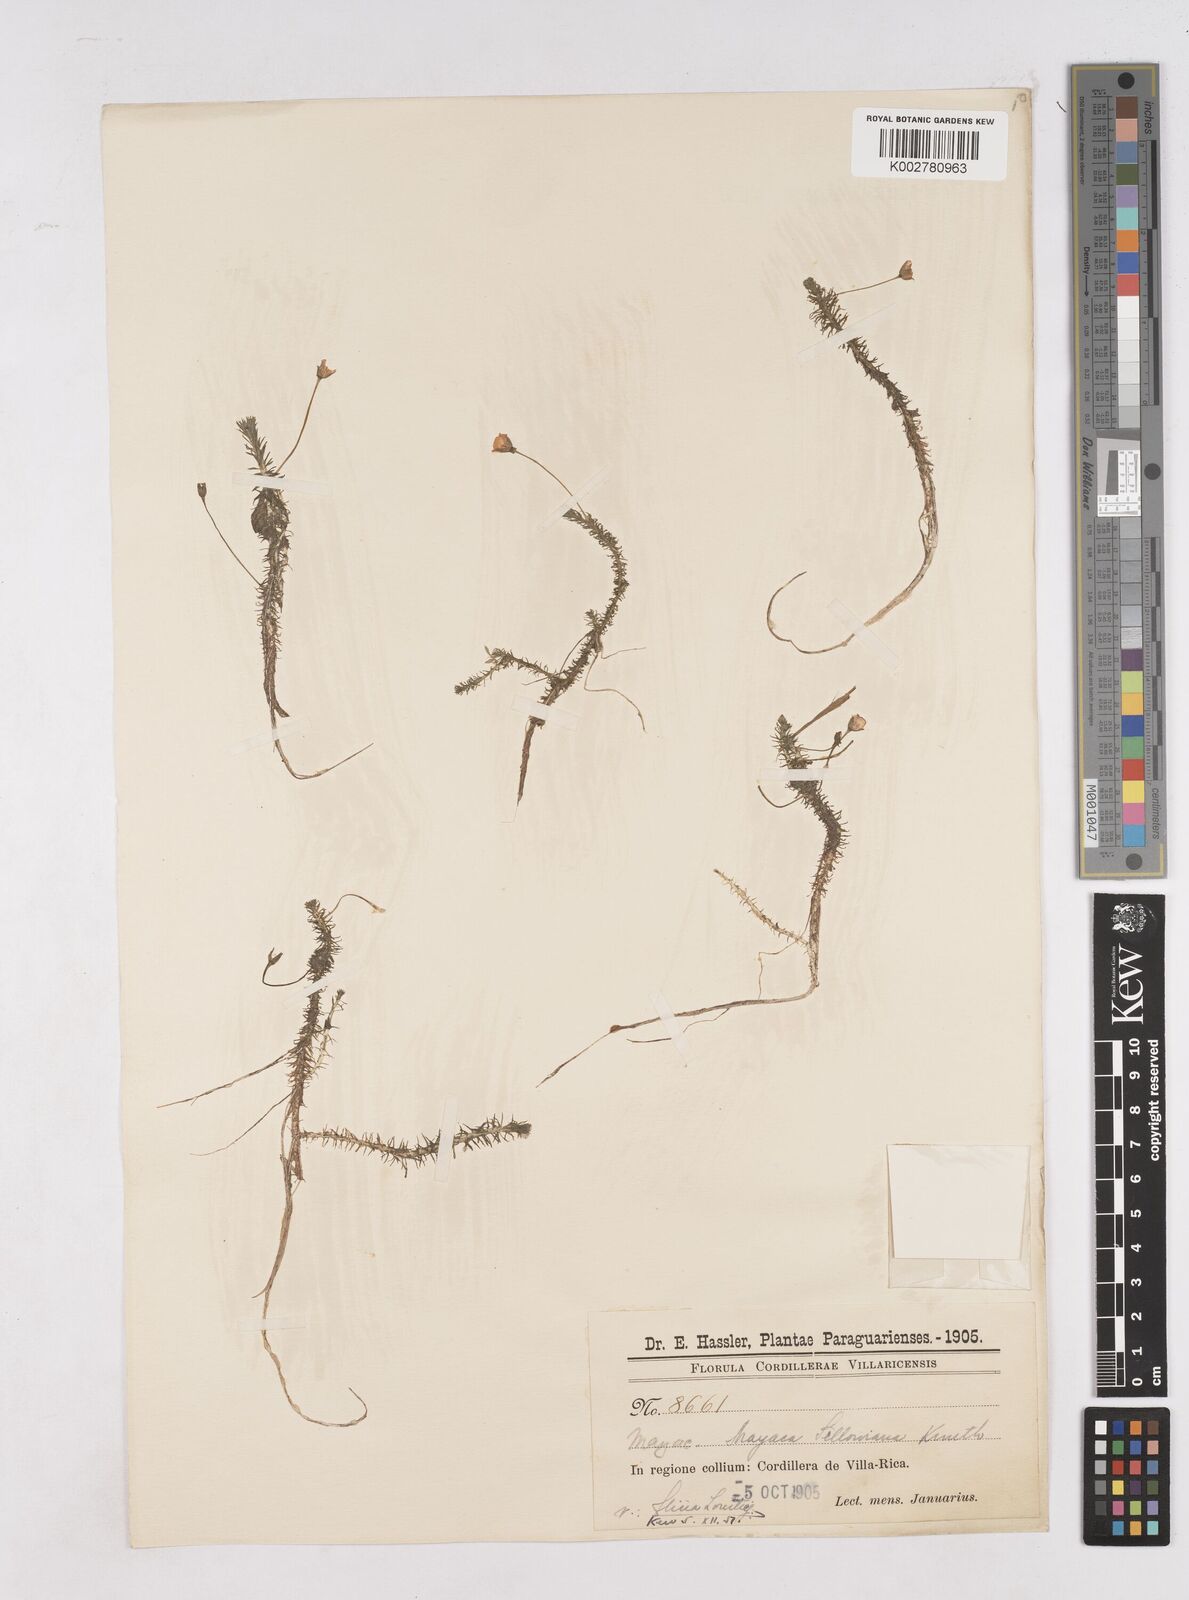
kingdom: Plantae
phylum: Tracheophyta
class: Liliopsida
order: Poales
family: Mayacaceae
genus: Mayaca
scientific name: Mayaca sellowiana
